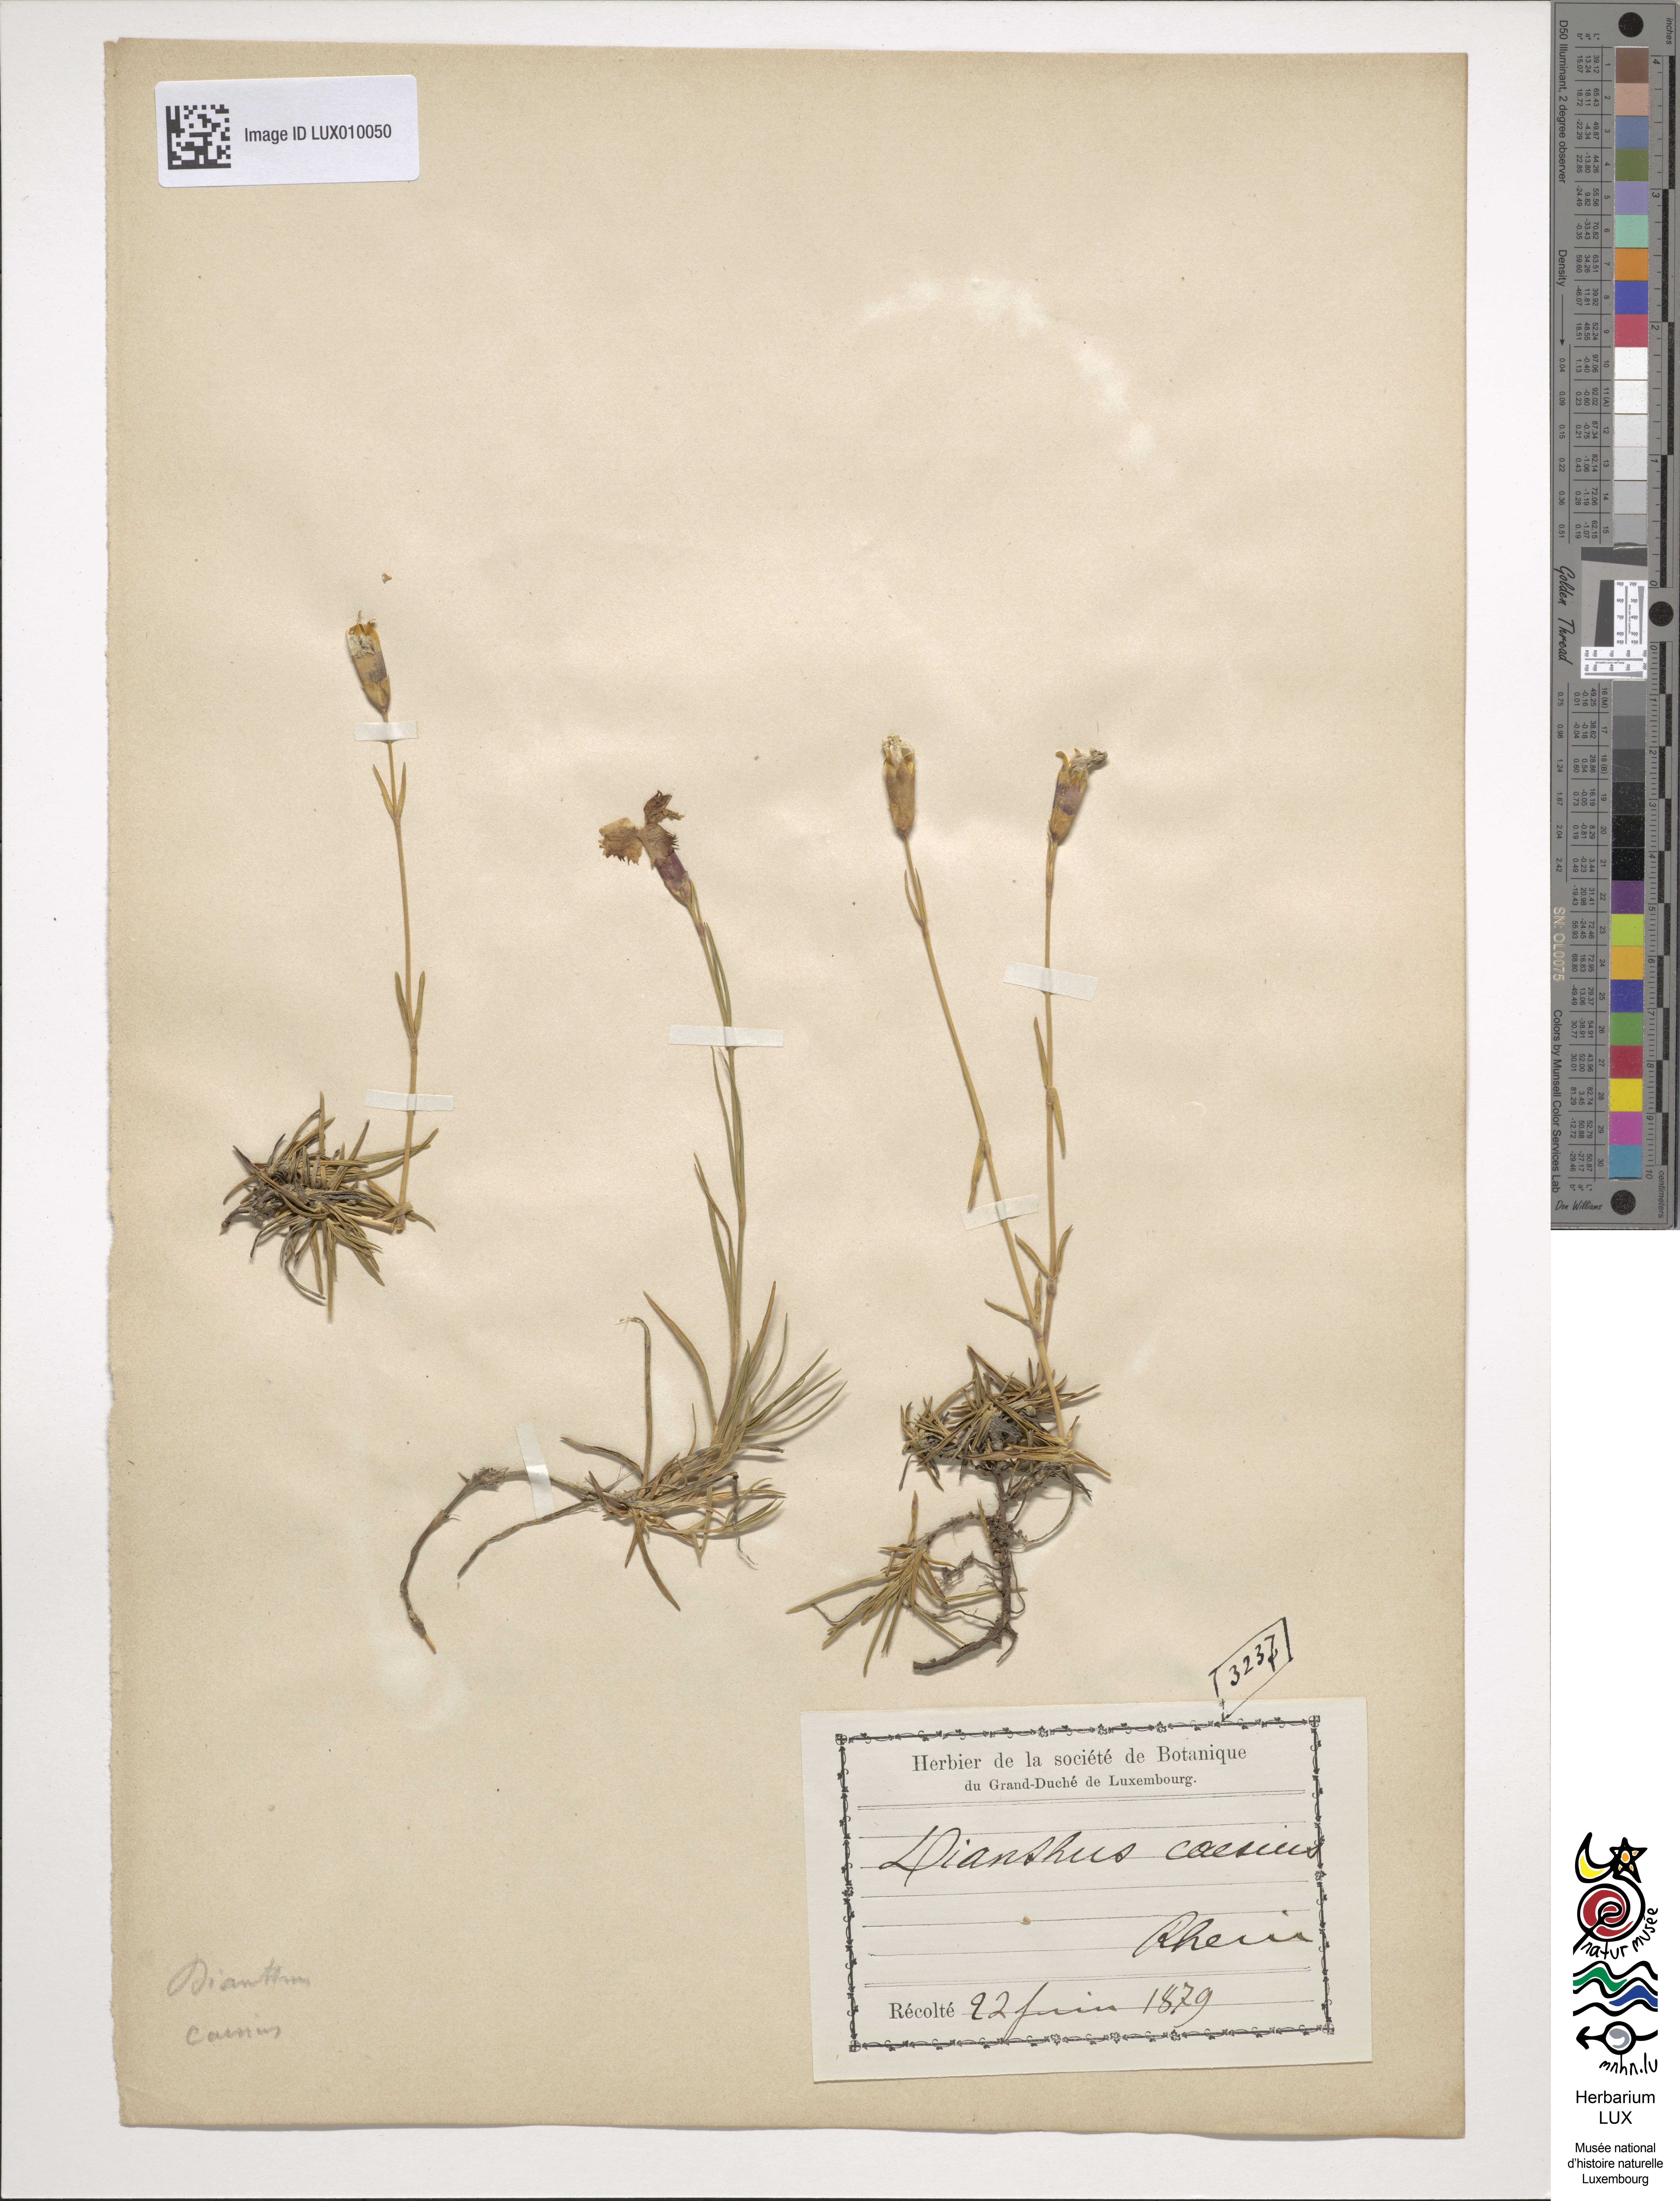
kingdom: Plantae
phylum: Tracheophyta
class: Magnoliopsida
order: Caryophyllales
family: Caryophyllaceae
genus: Dianthus
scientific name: Dianthus gratianopolitanus
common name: Cheddar pink
